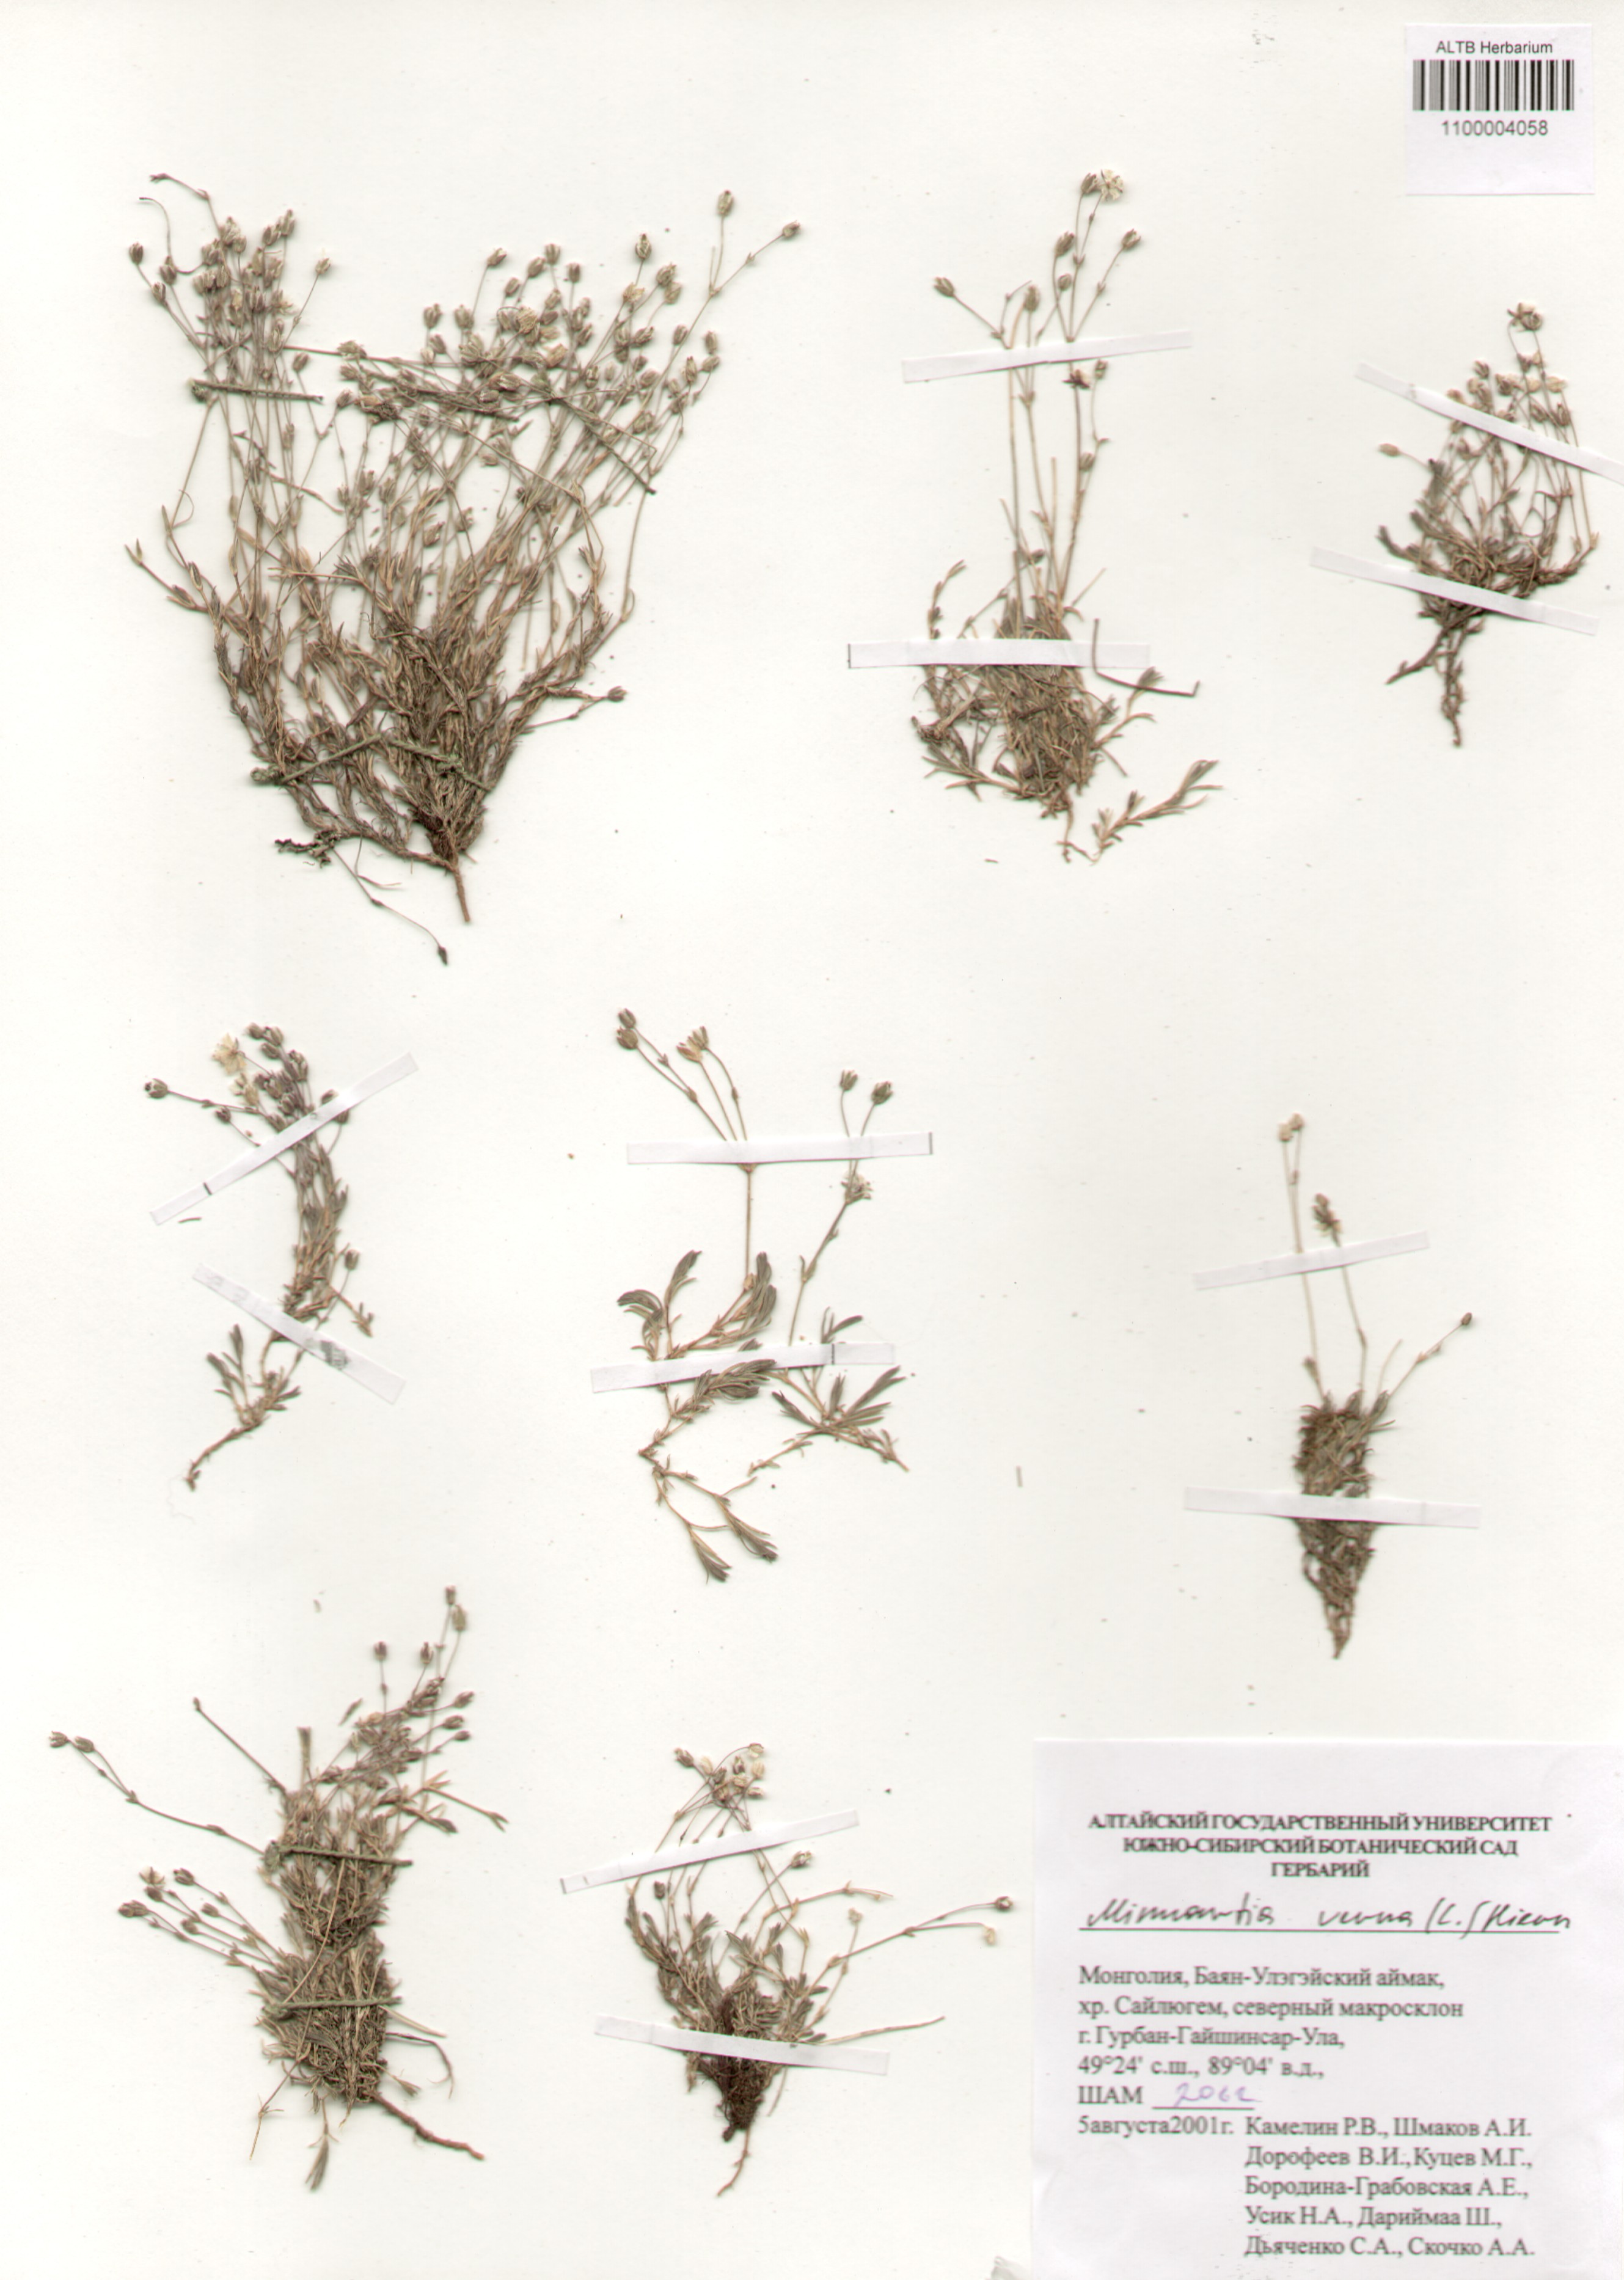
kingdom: Plantae
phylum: Tracheophyta
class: Magnoliopsida
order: Caryophyllales
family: Caryophyllaceae
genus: Sabulina
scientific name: Sabulina verna
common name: Spring sandwort
